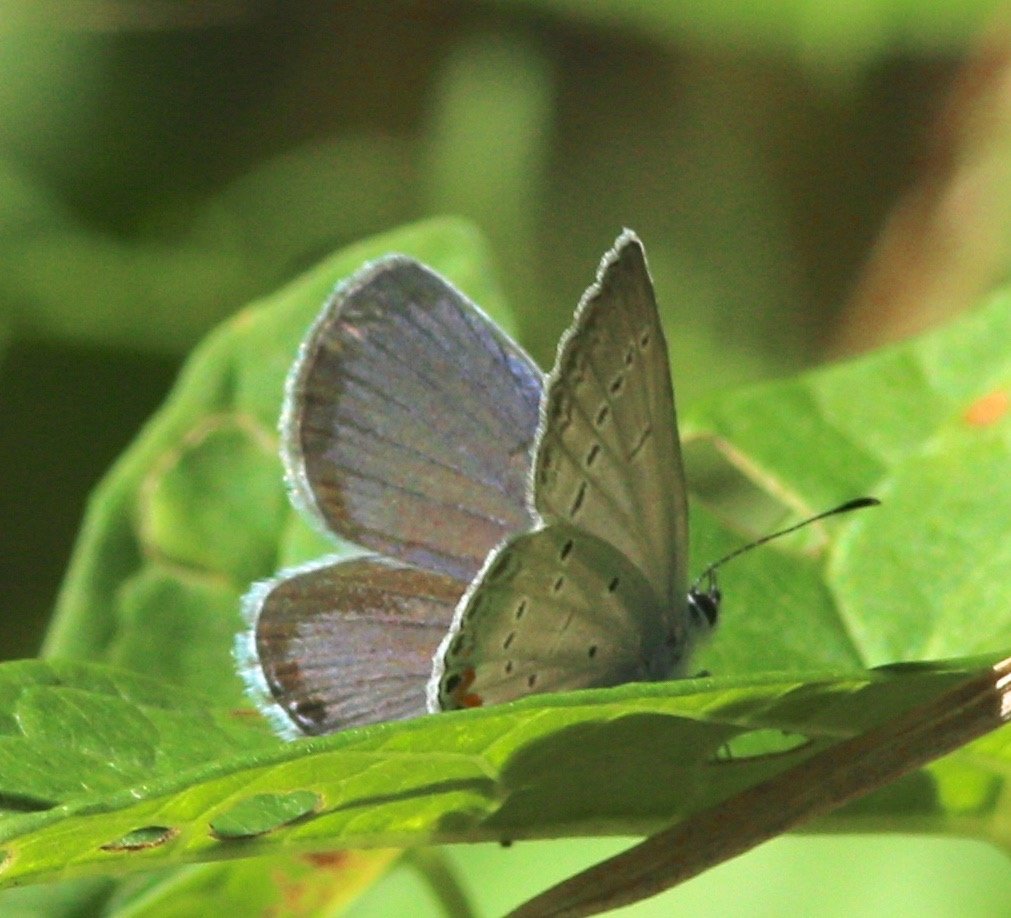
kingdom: Animalia
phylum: Arthropoda
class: Insecta
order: Lepidoptera
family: Lycaenidae
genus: Elkalyce
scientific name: Elkalyce comyntas
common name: Eastern Tailed-Blue
